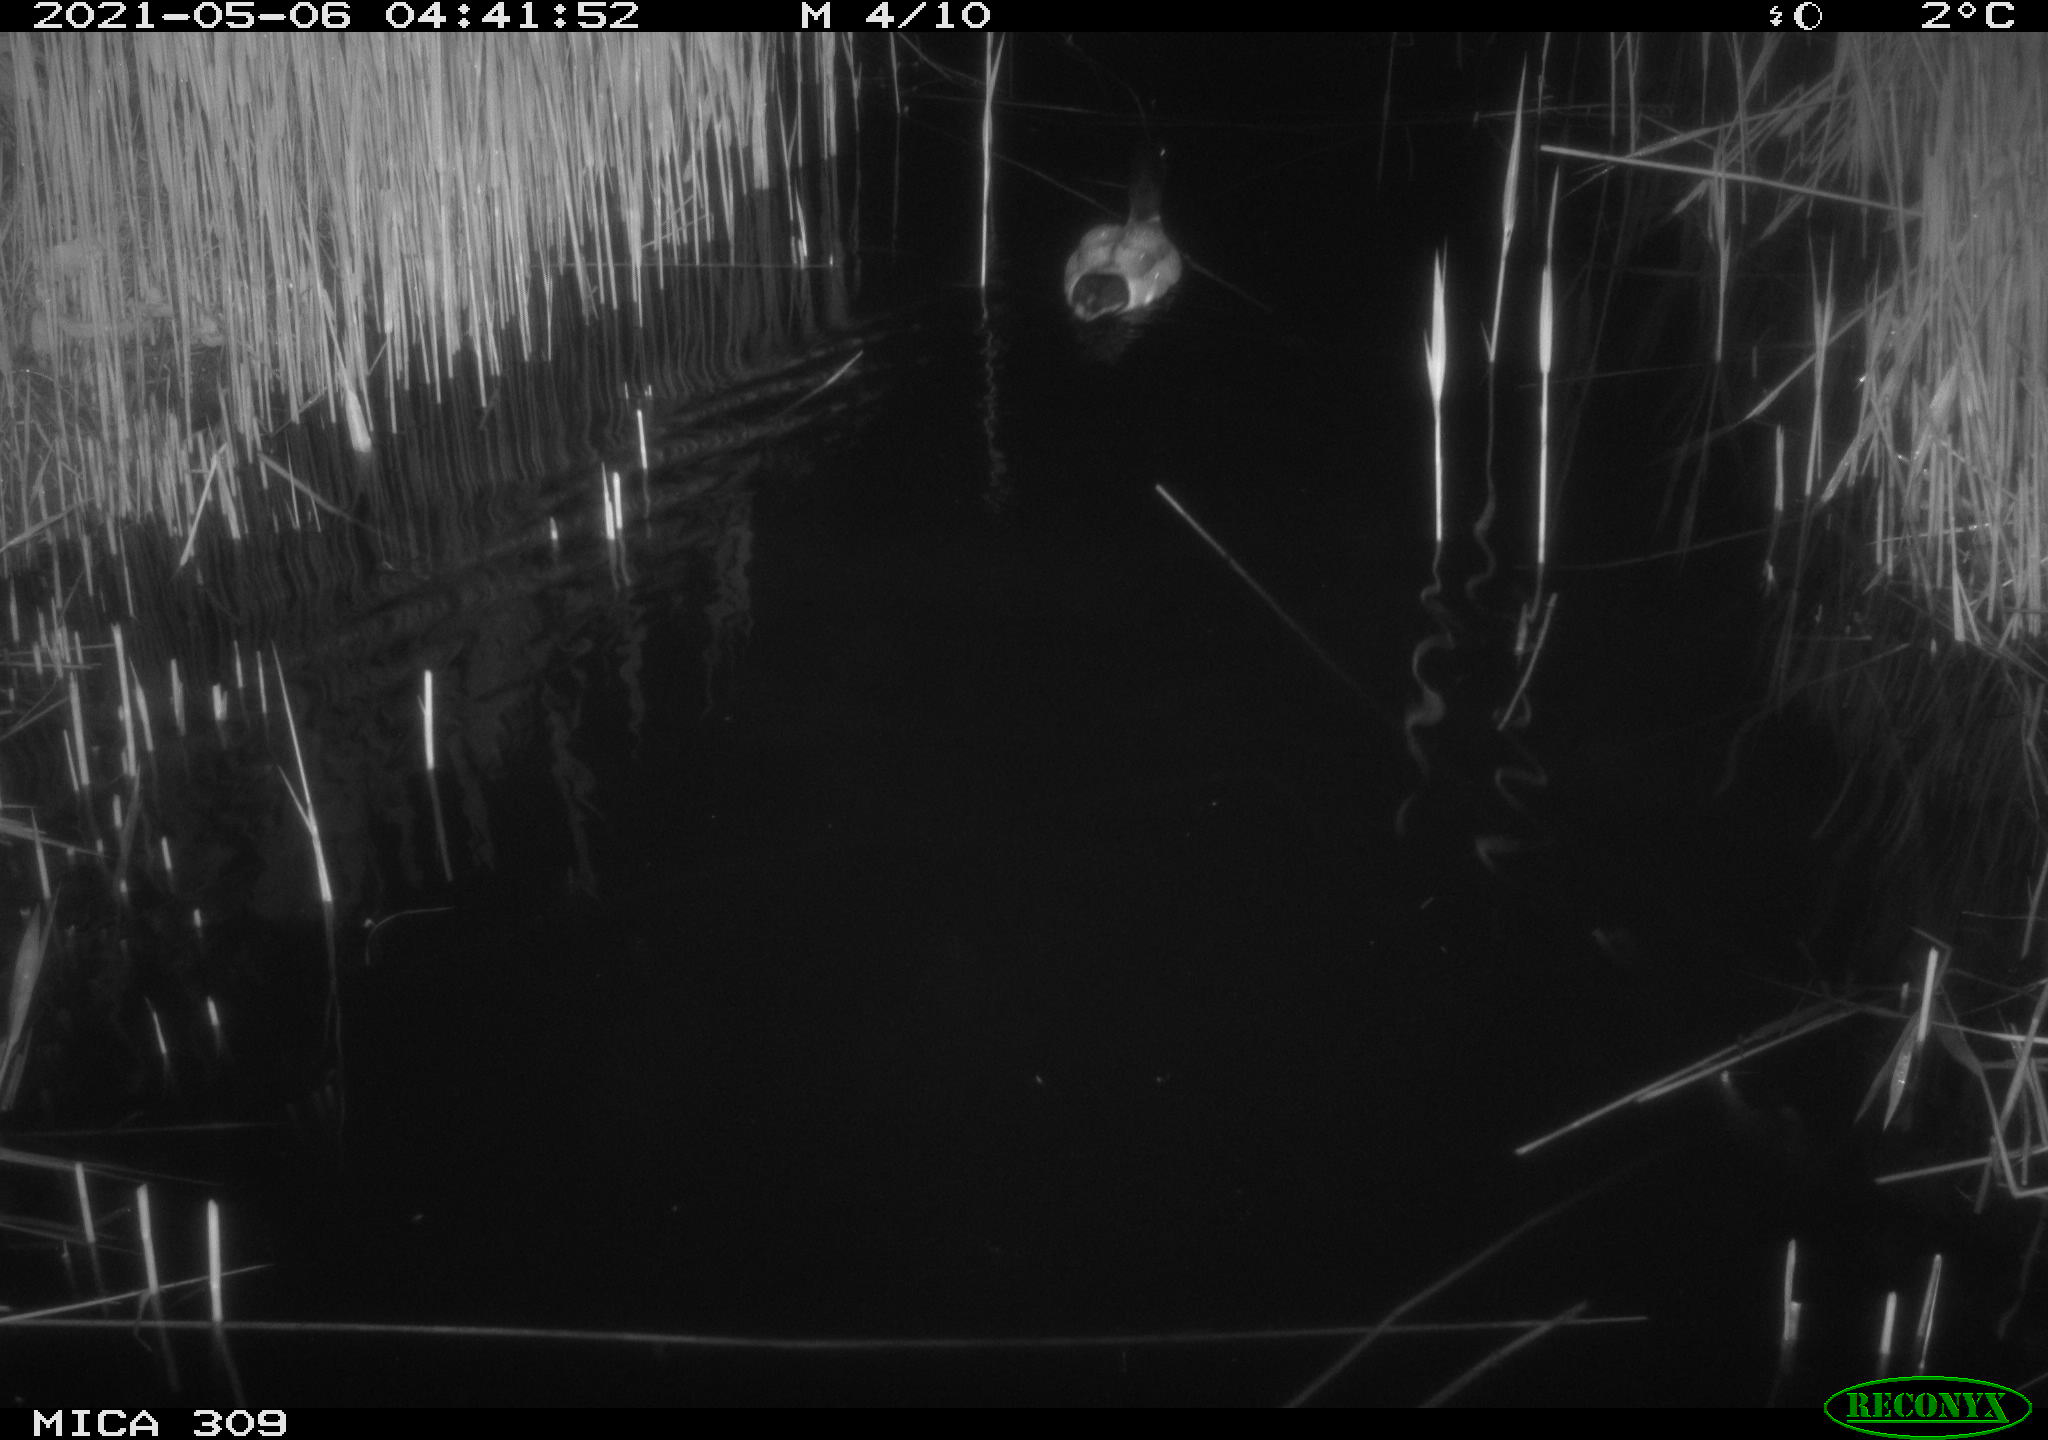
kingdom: Animalia
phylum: Chordata
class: Aves
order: Anseriformes
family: Anatidae
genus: Anas
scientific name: Anas platyrhynchos
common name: Mallard
